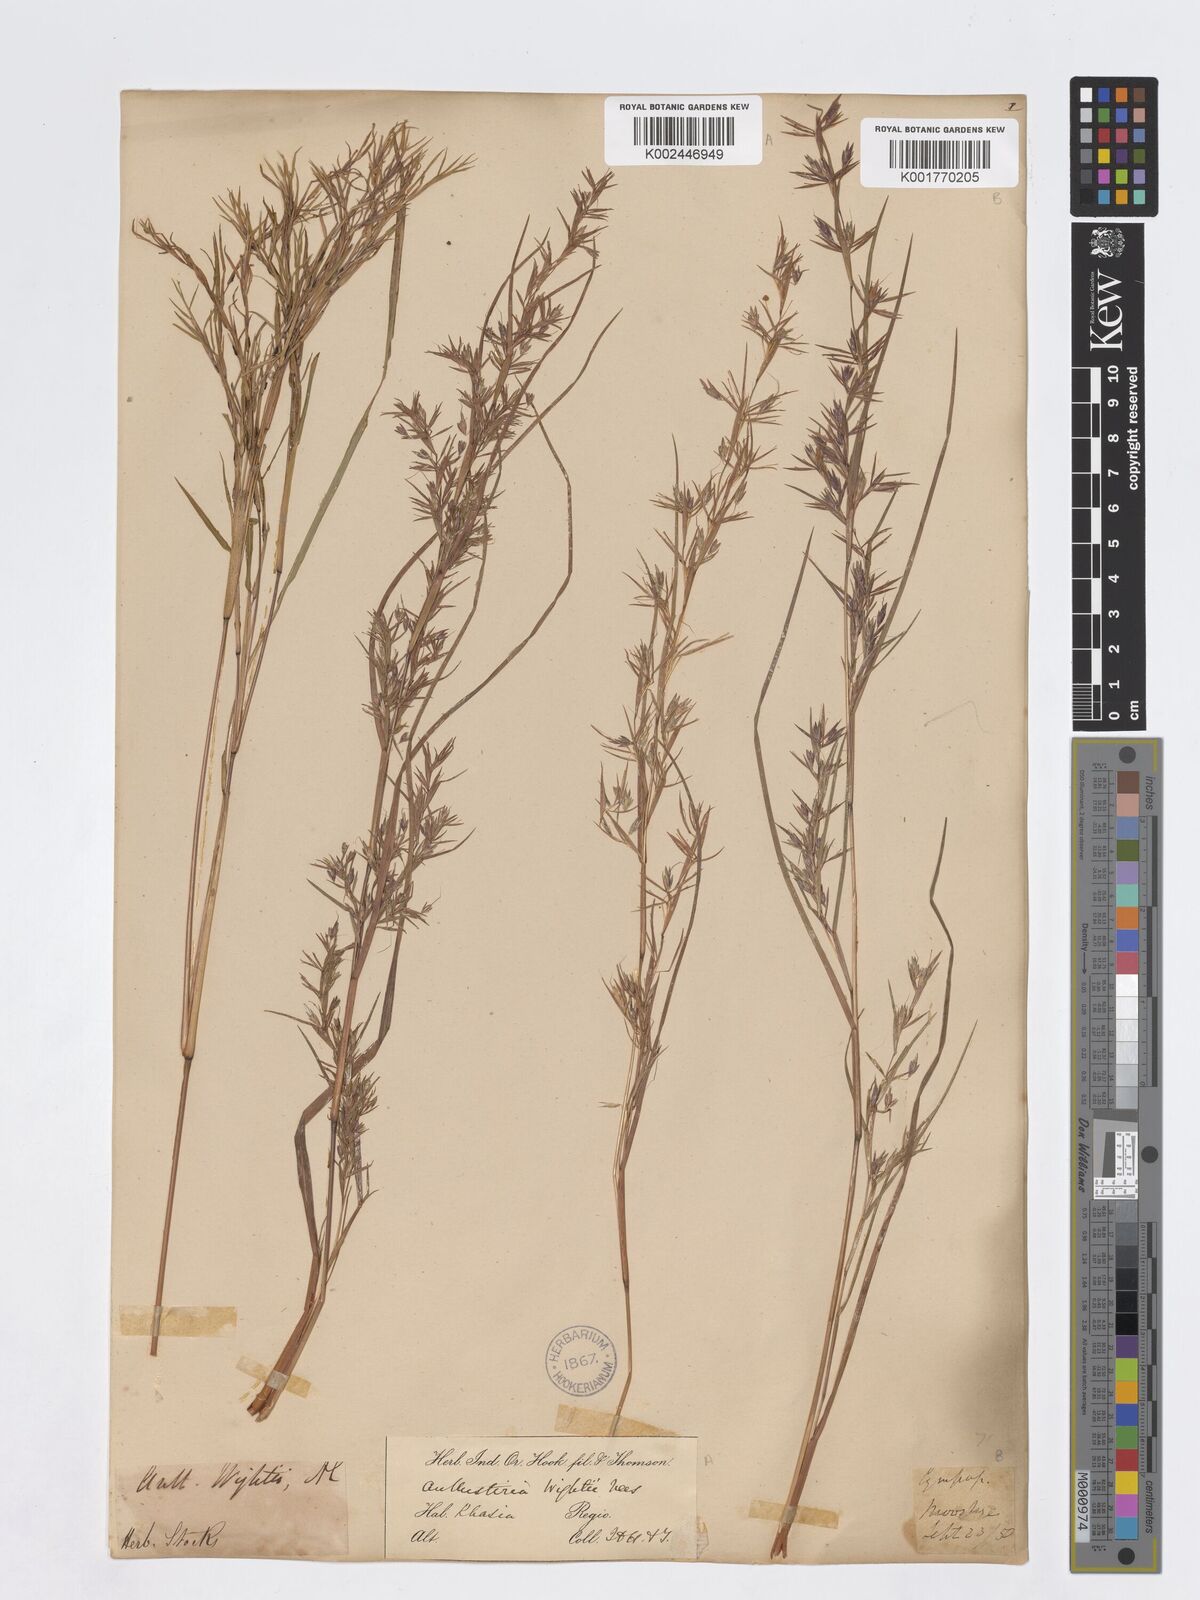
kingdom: Plantae
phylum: Tracheophyta
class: Liliopsida
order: Poales
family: Poaceae
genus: Iseilema
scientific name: Iseilema prostratum
